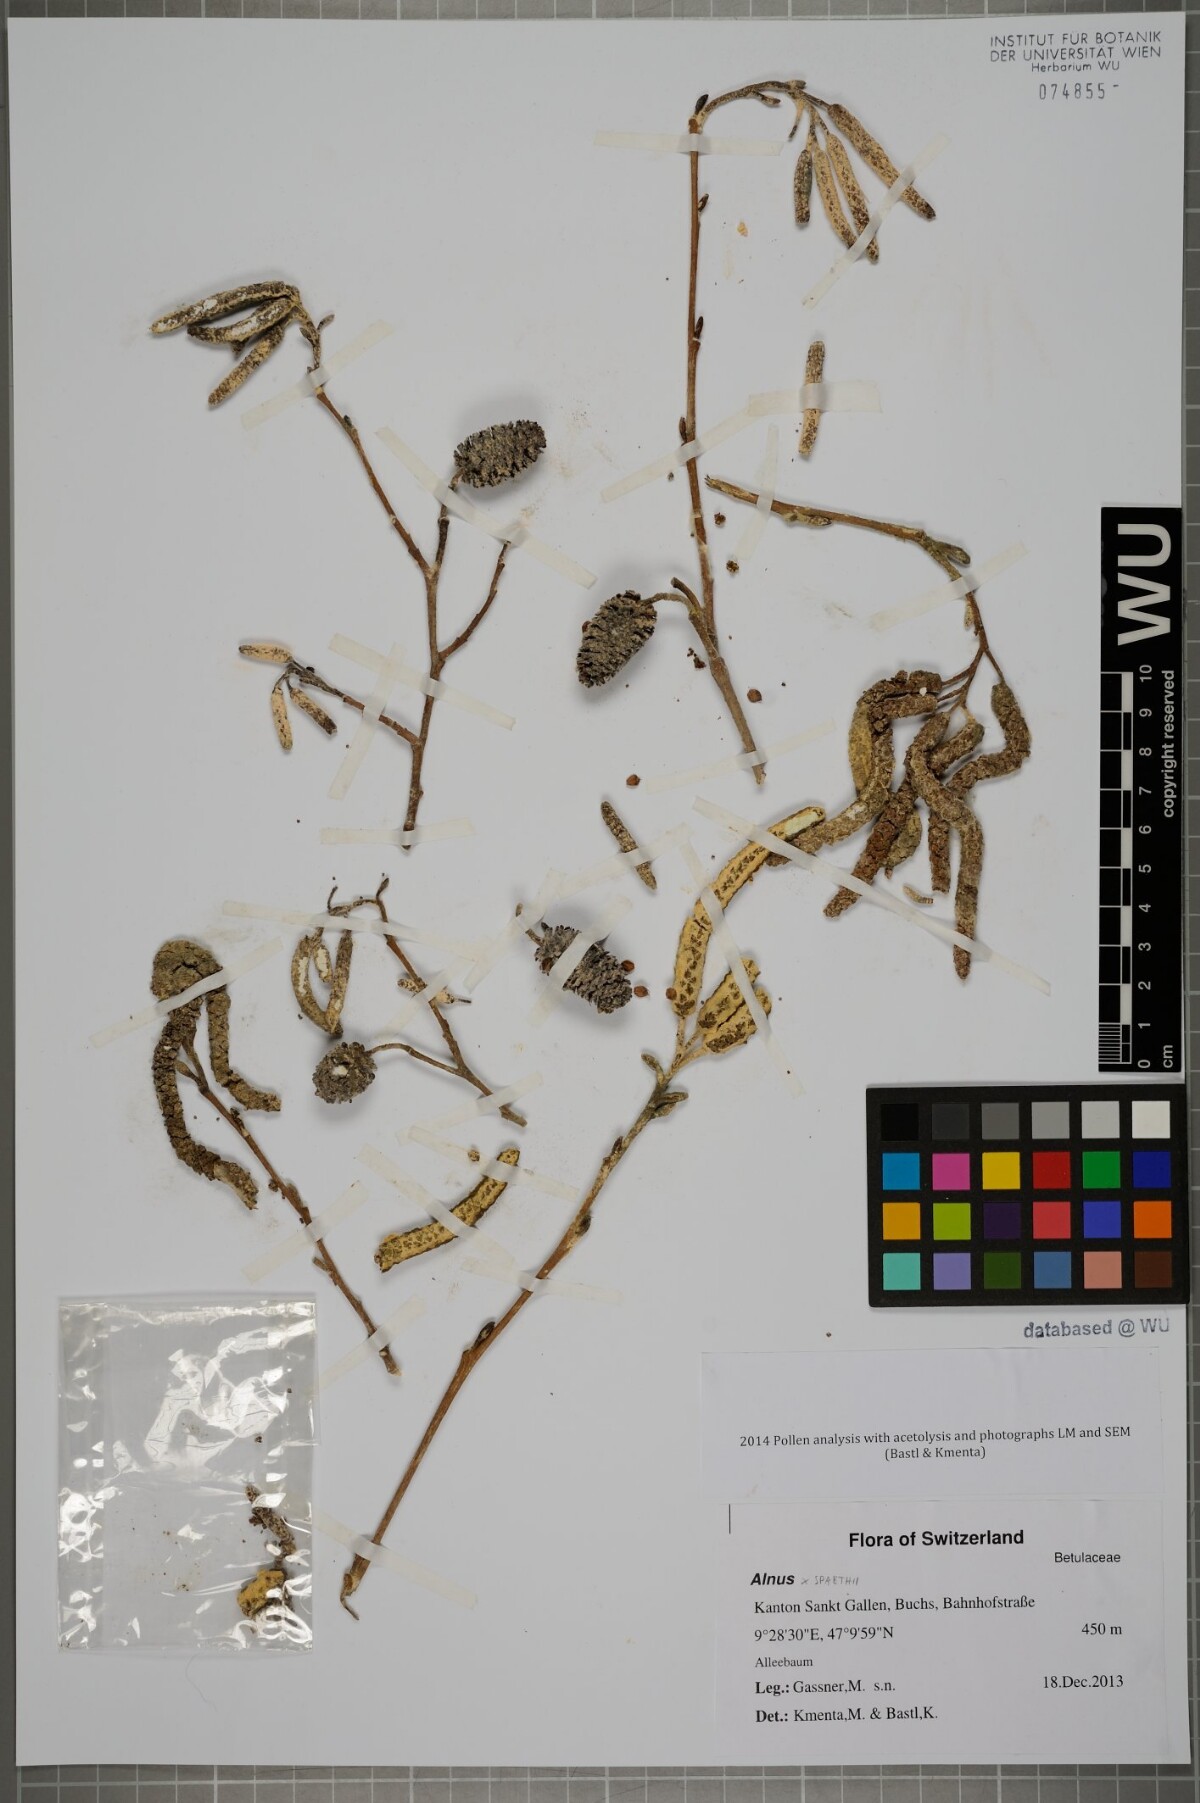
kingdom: Plantae
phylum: Tracheophyta
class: Magnoliopsida
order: Fagales
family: Betulaceae
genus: Alnus
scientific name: Alnus
